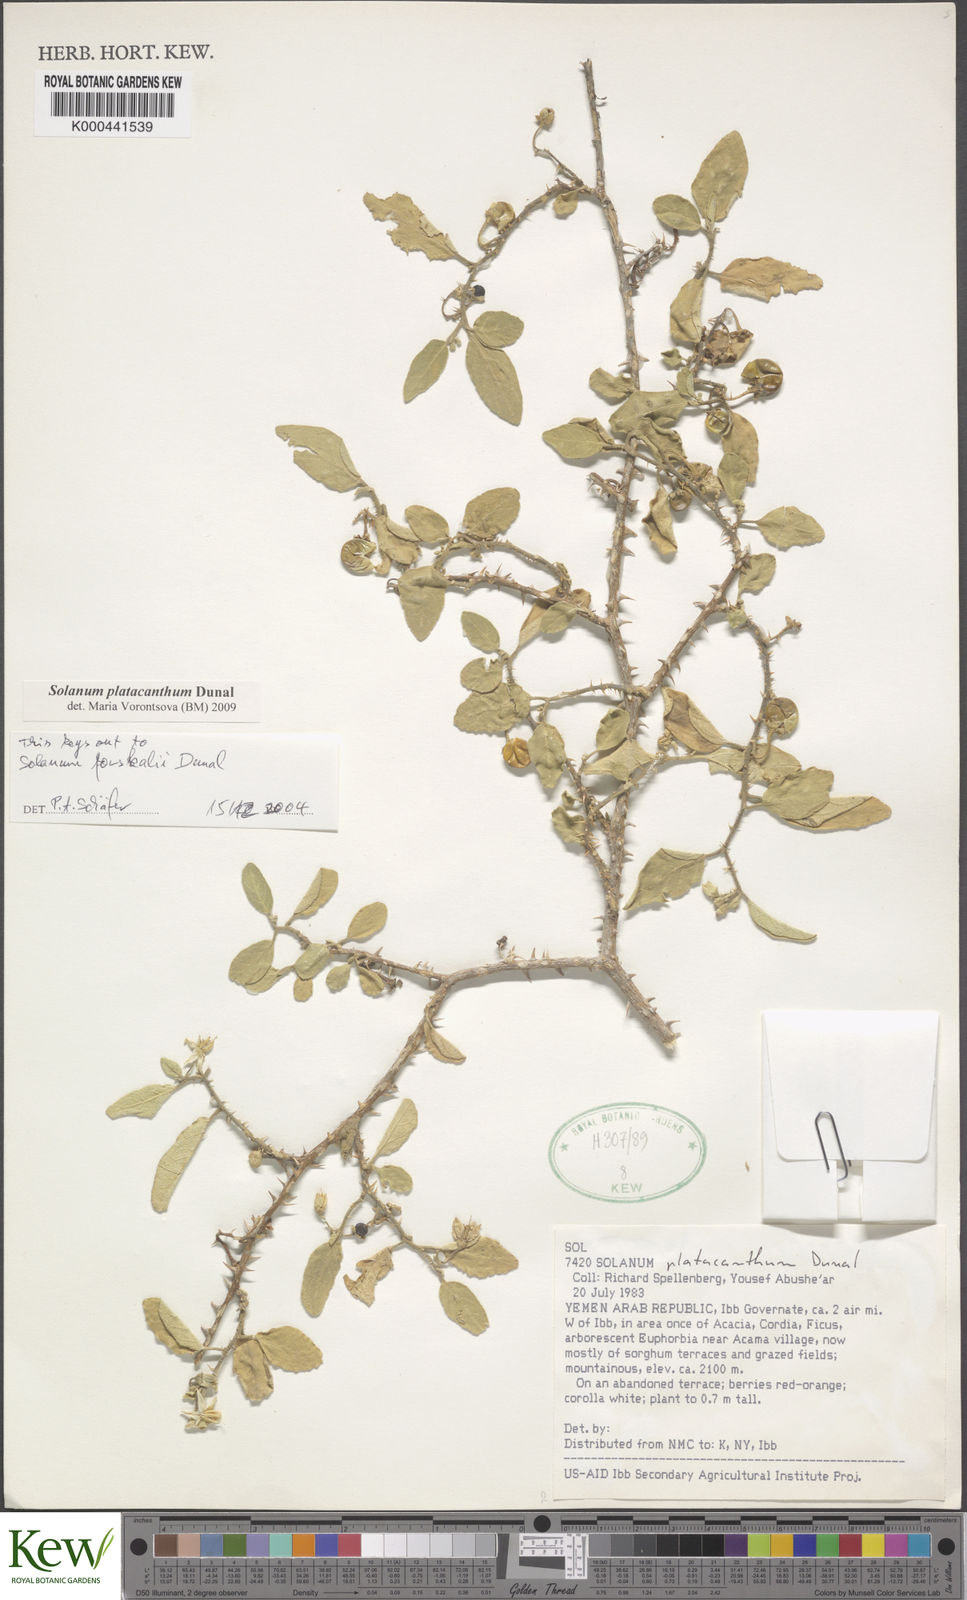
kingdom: Plantae
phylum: Tracheophyta
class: Magnoliopsida
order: Solanales
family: Solanaceae
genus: Solanum
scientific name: Solanum platacanthum
